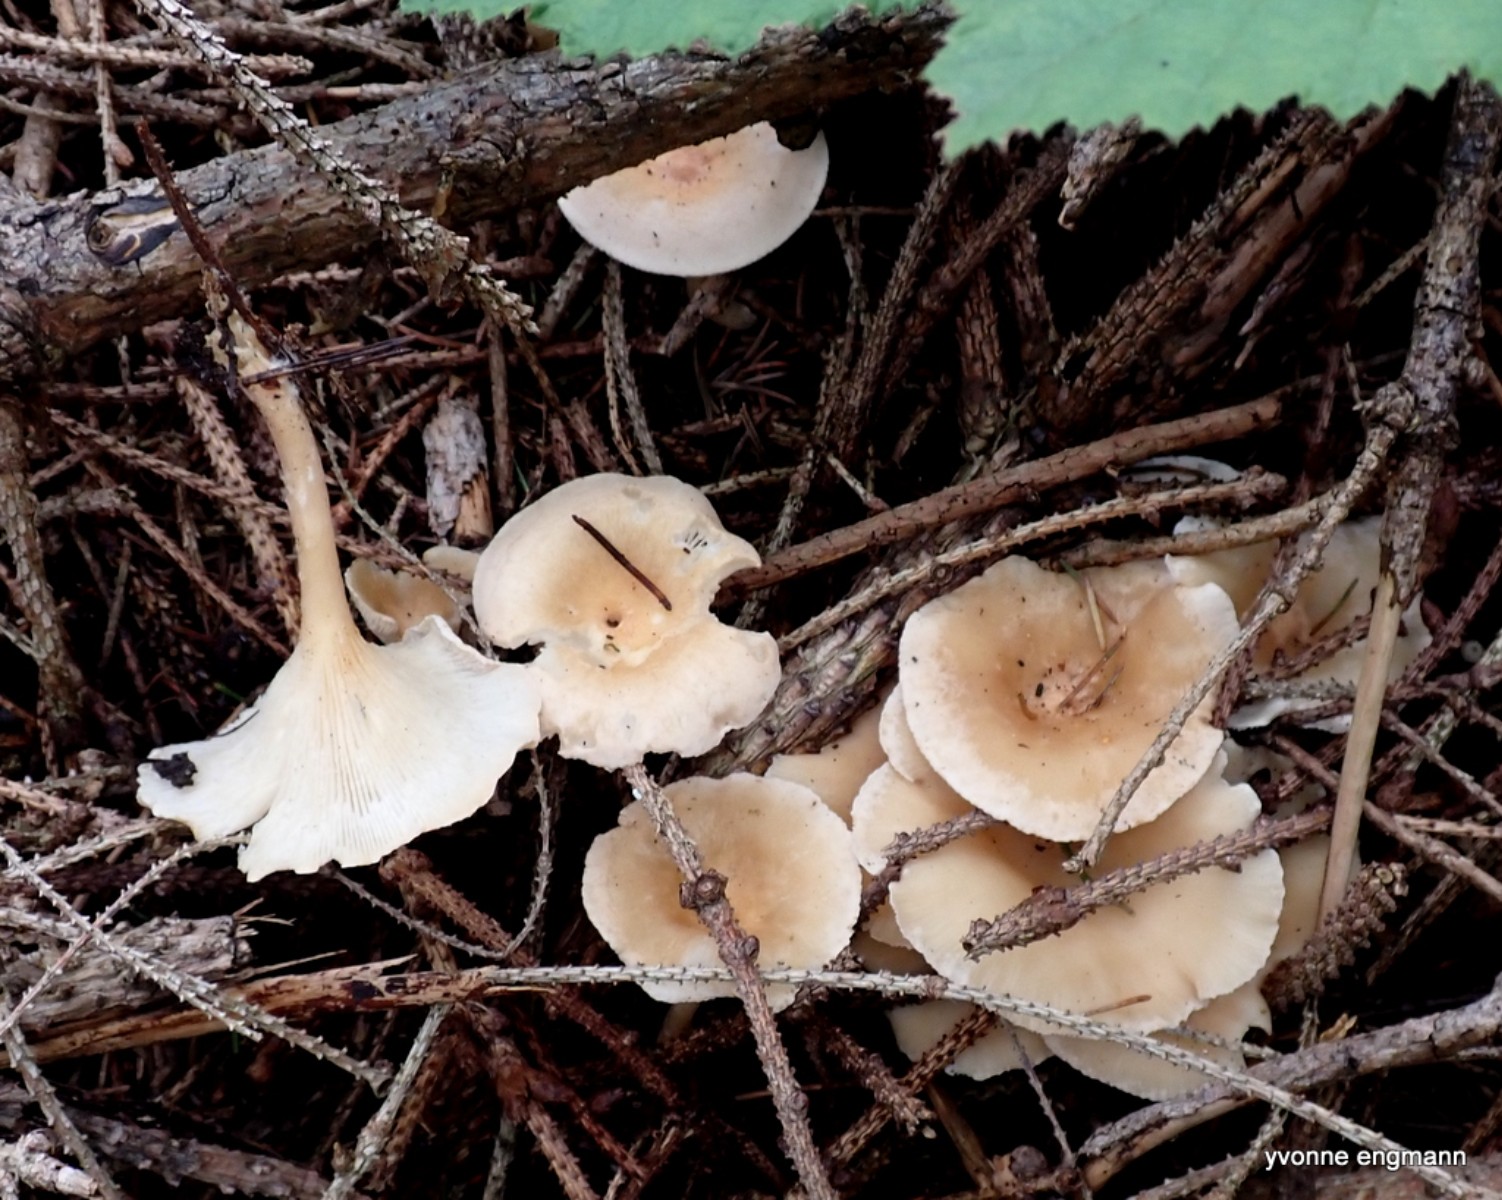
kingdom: Fungi
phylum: Basidiomycota
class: Agaricomycetes
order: Agaricales
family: Tricholomataceae
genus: Infundibulicybe
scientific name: Infundibulicybe gibba
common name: almindelig tragthat
